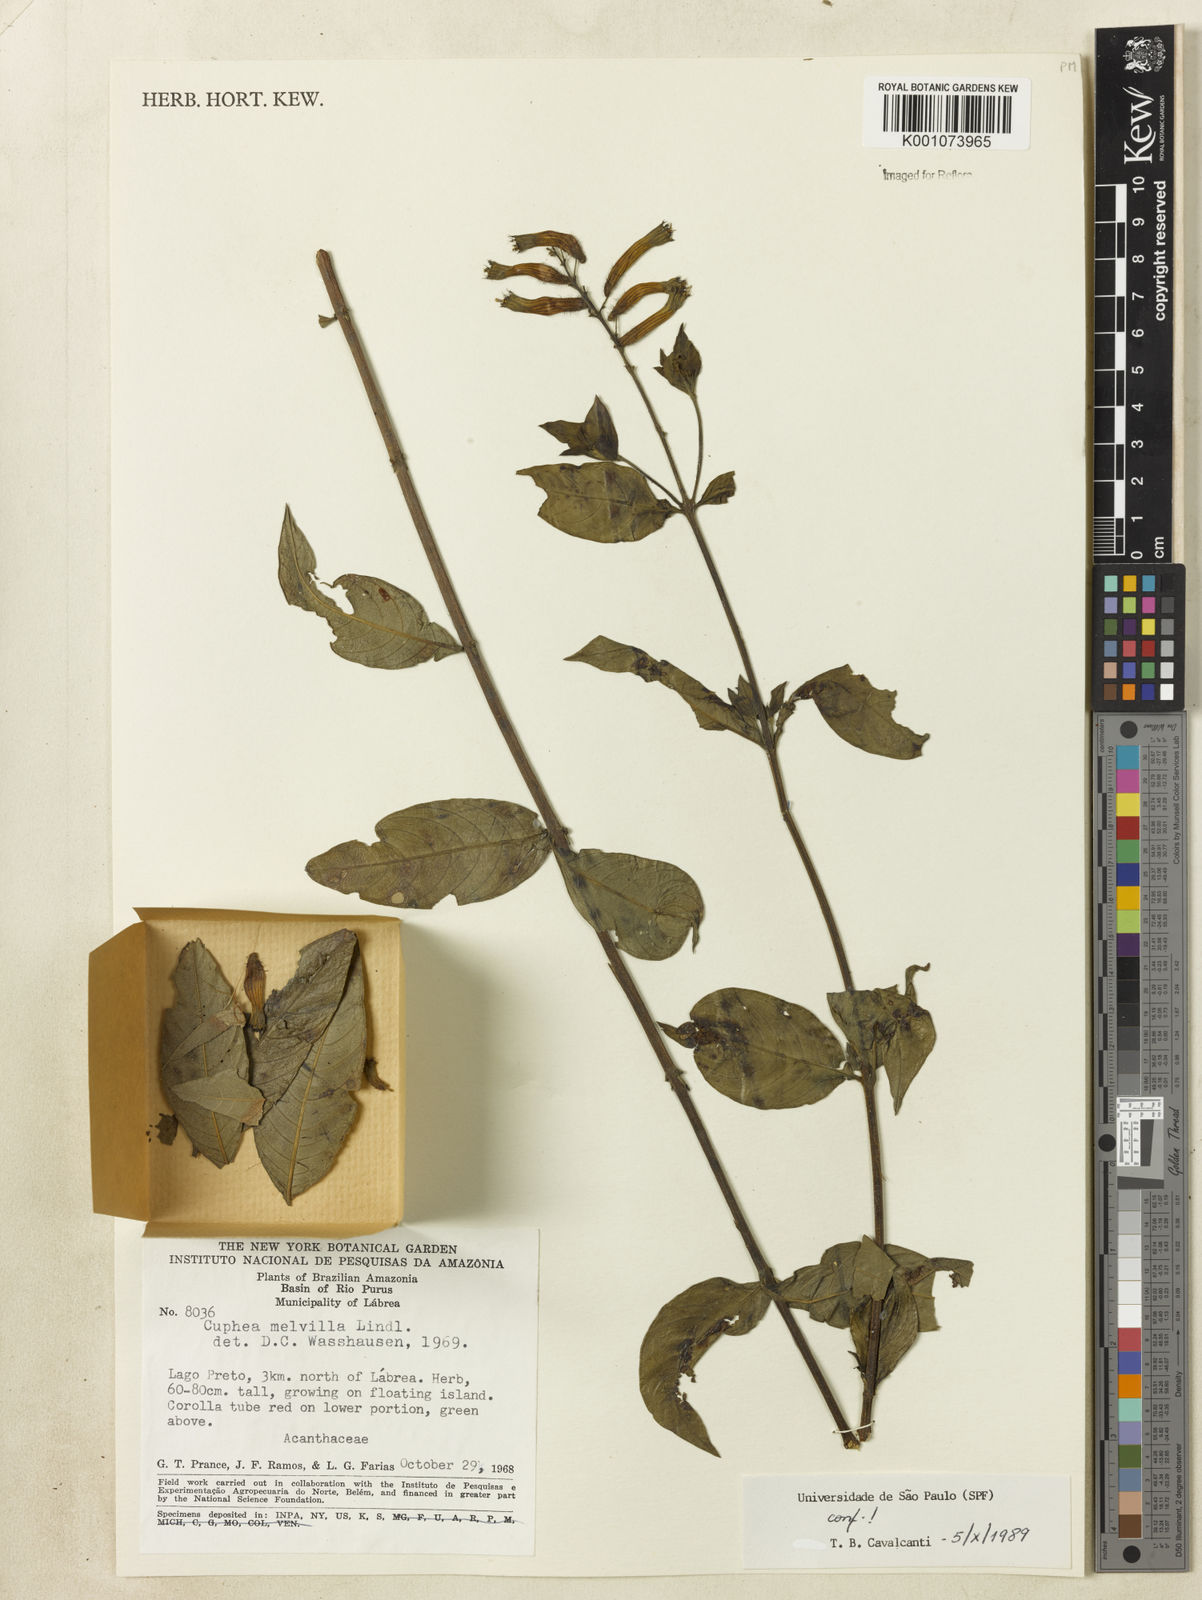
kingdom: Plantae
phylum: Tracheophyta
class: Magnoliopsida
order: Myrtales
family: Lythraceae
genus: Cuphea
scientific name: Cuphea melvilla
